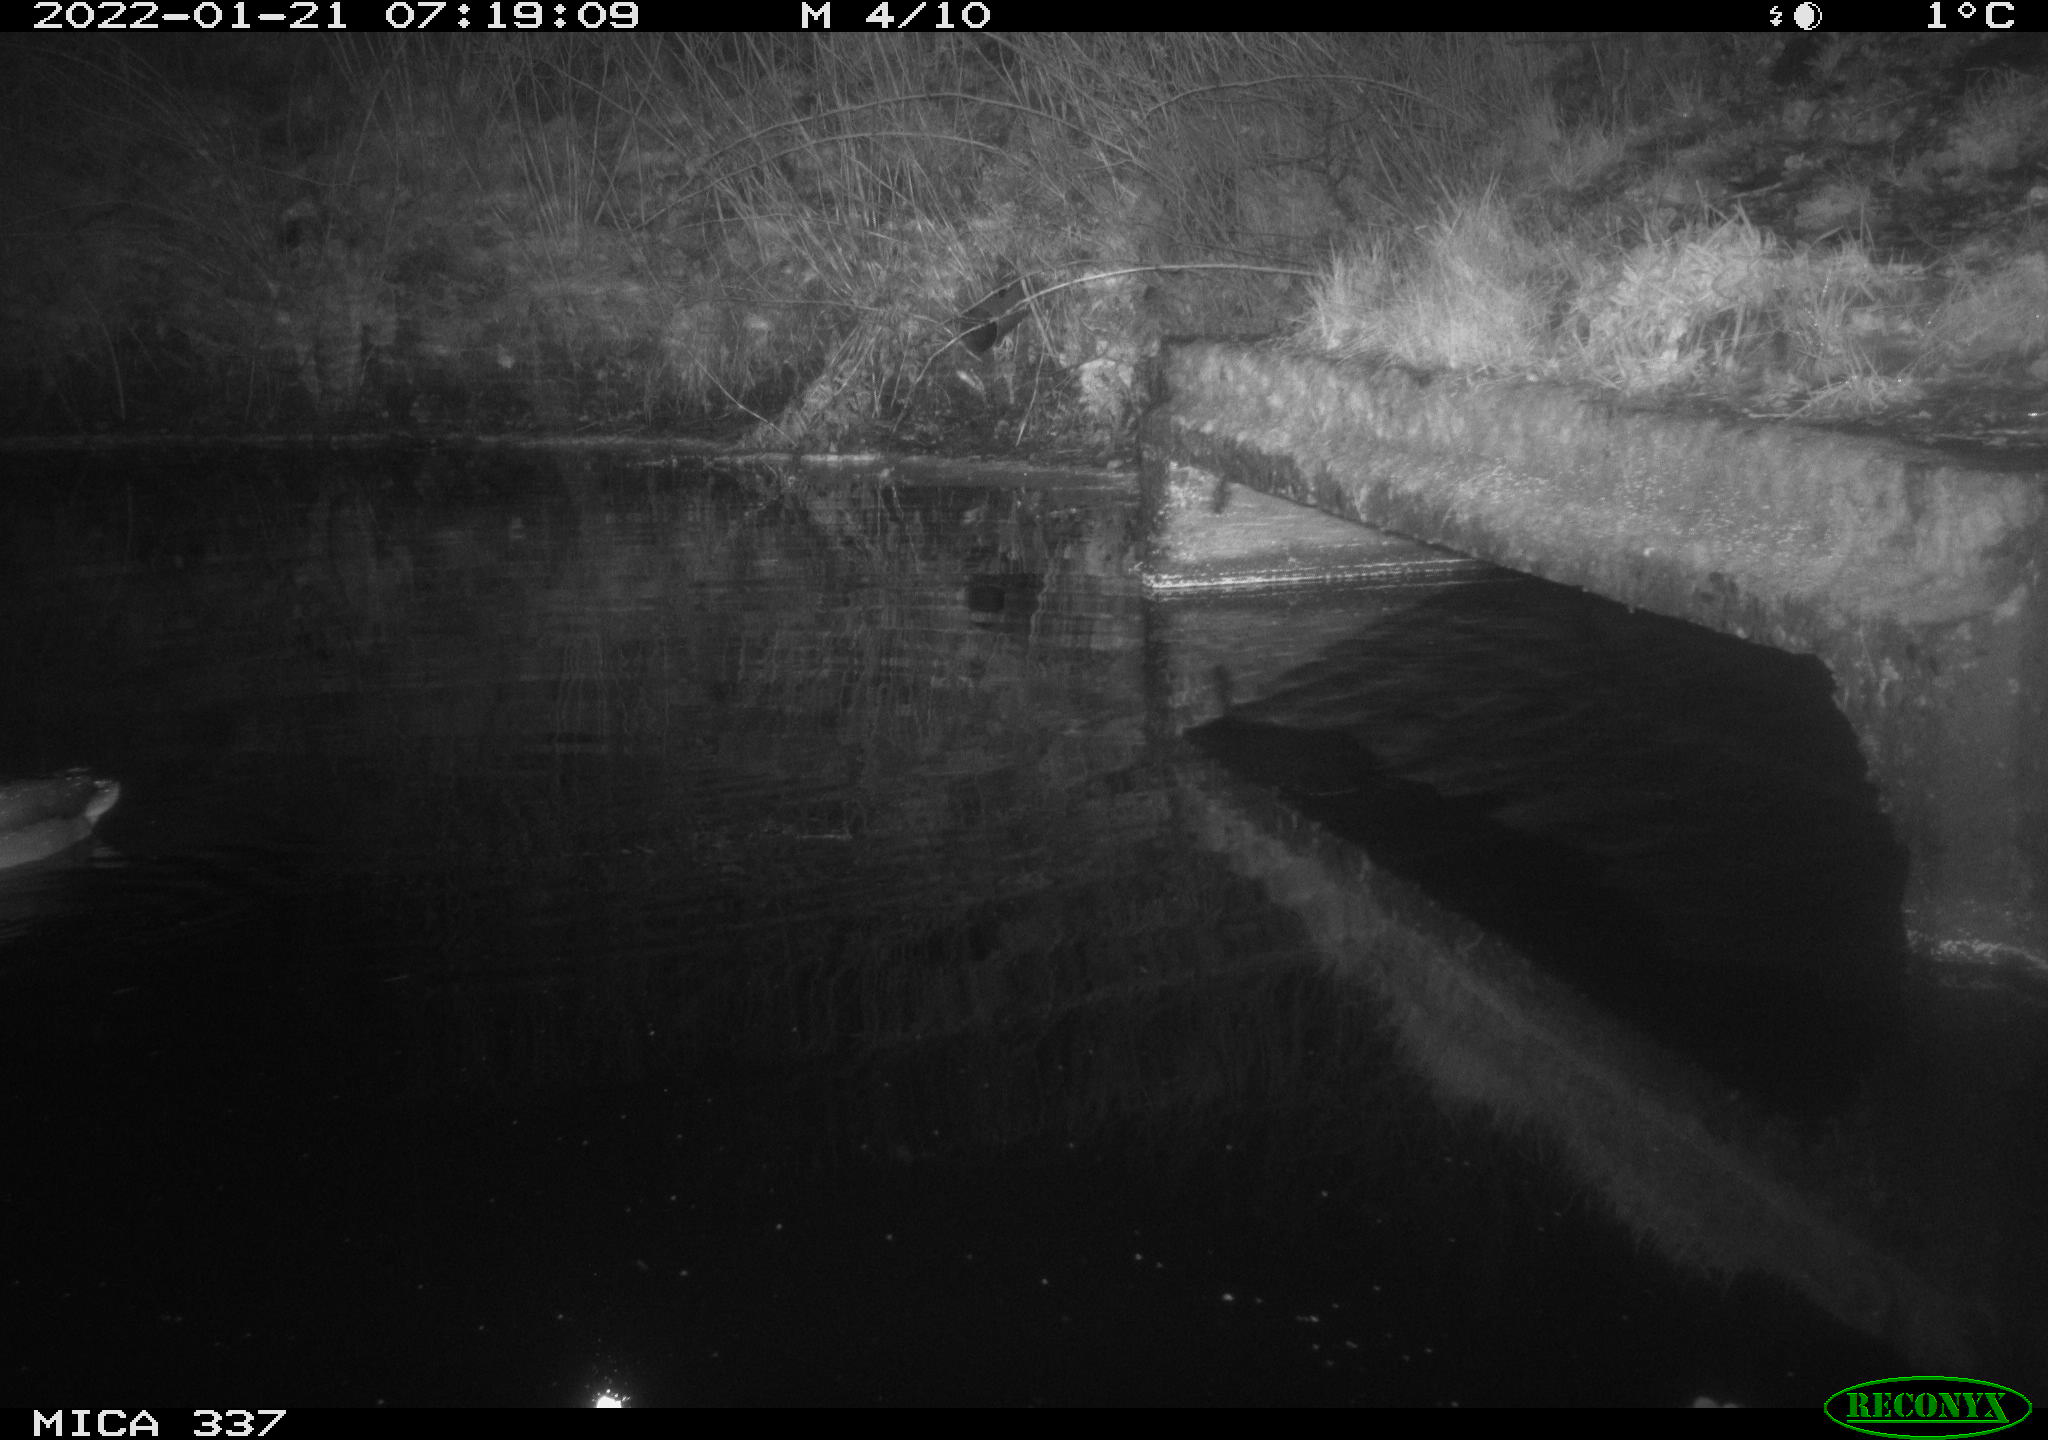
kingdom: Animalia
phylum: Chordata
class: Aves
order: Anseriformes
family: Anatidae
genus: Anas
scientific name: Anas platyrhynchos
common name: Mallard
